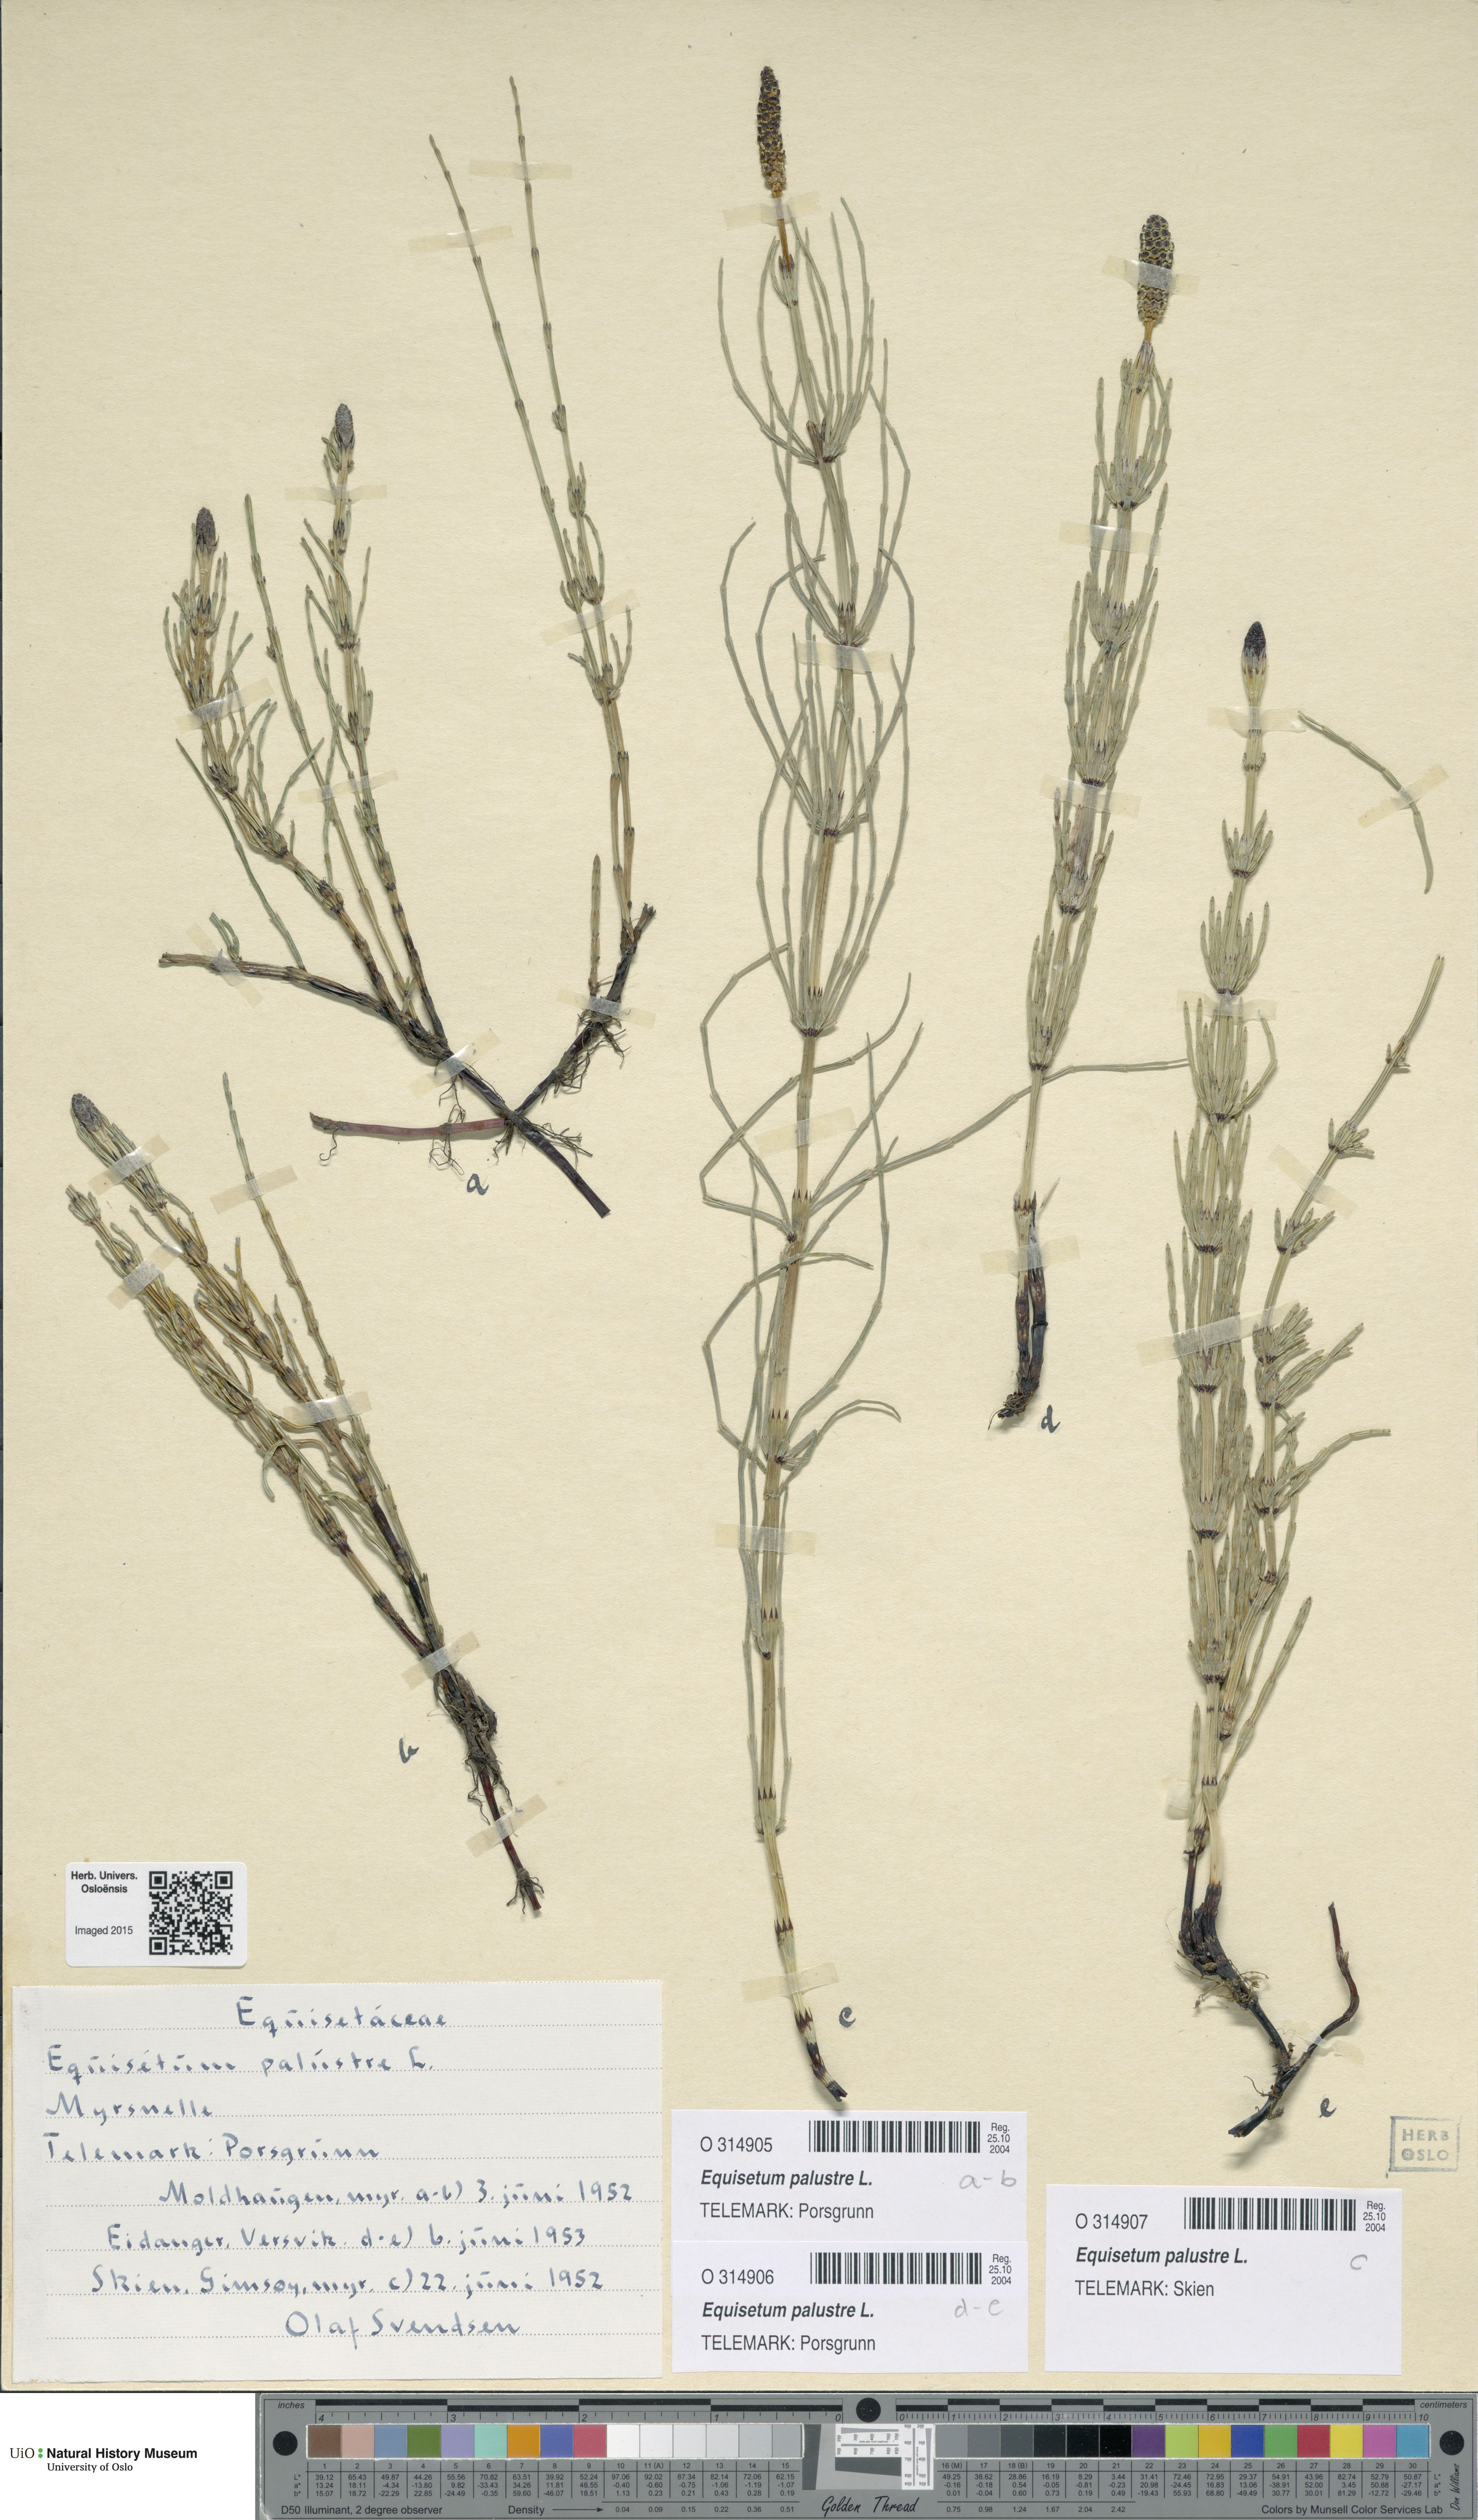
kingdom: Plantae
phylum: Tracheophyta
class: Polypodiopsida
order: Equisetales
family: Equisetaceae
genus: Equisetum
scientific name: Equisetum palustre
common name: Marsh horsetail
